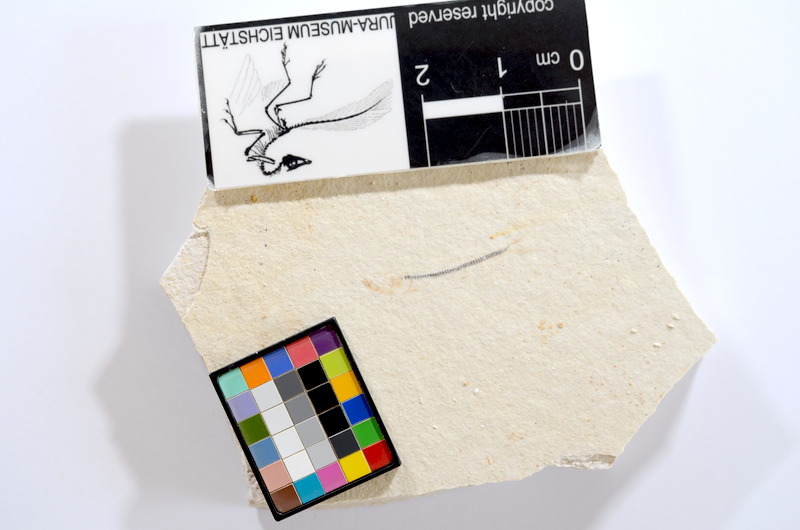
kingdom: Animalia
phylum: Chordata
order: Salmoniformes
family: Orthogonikleithridae
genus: Orthogonikleithrus
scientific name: Orthogonikleithrus hoelli
